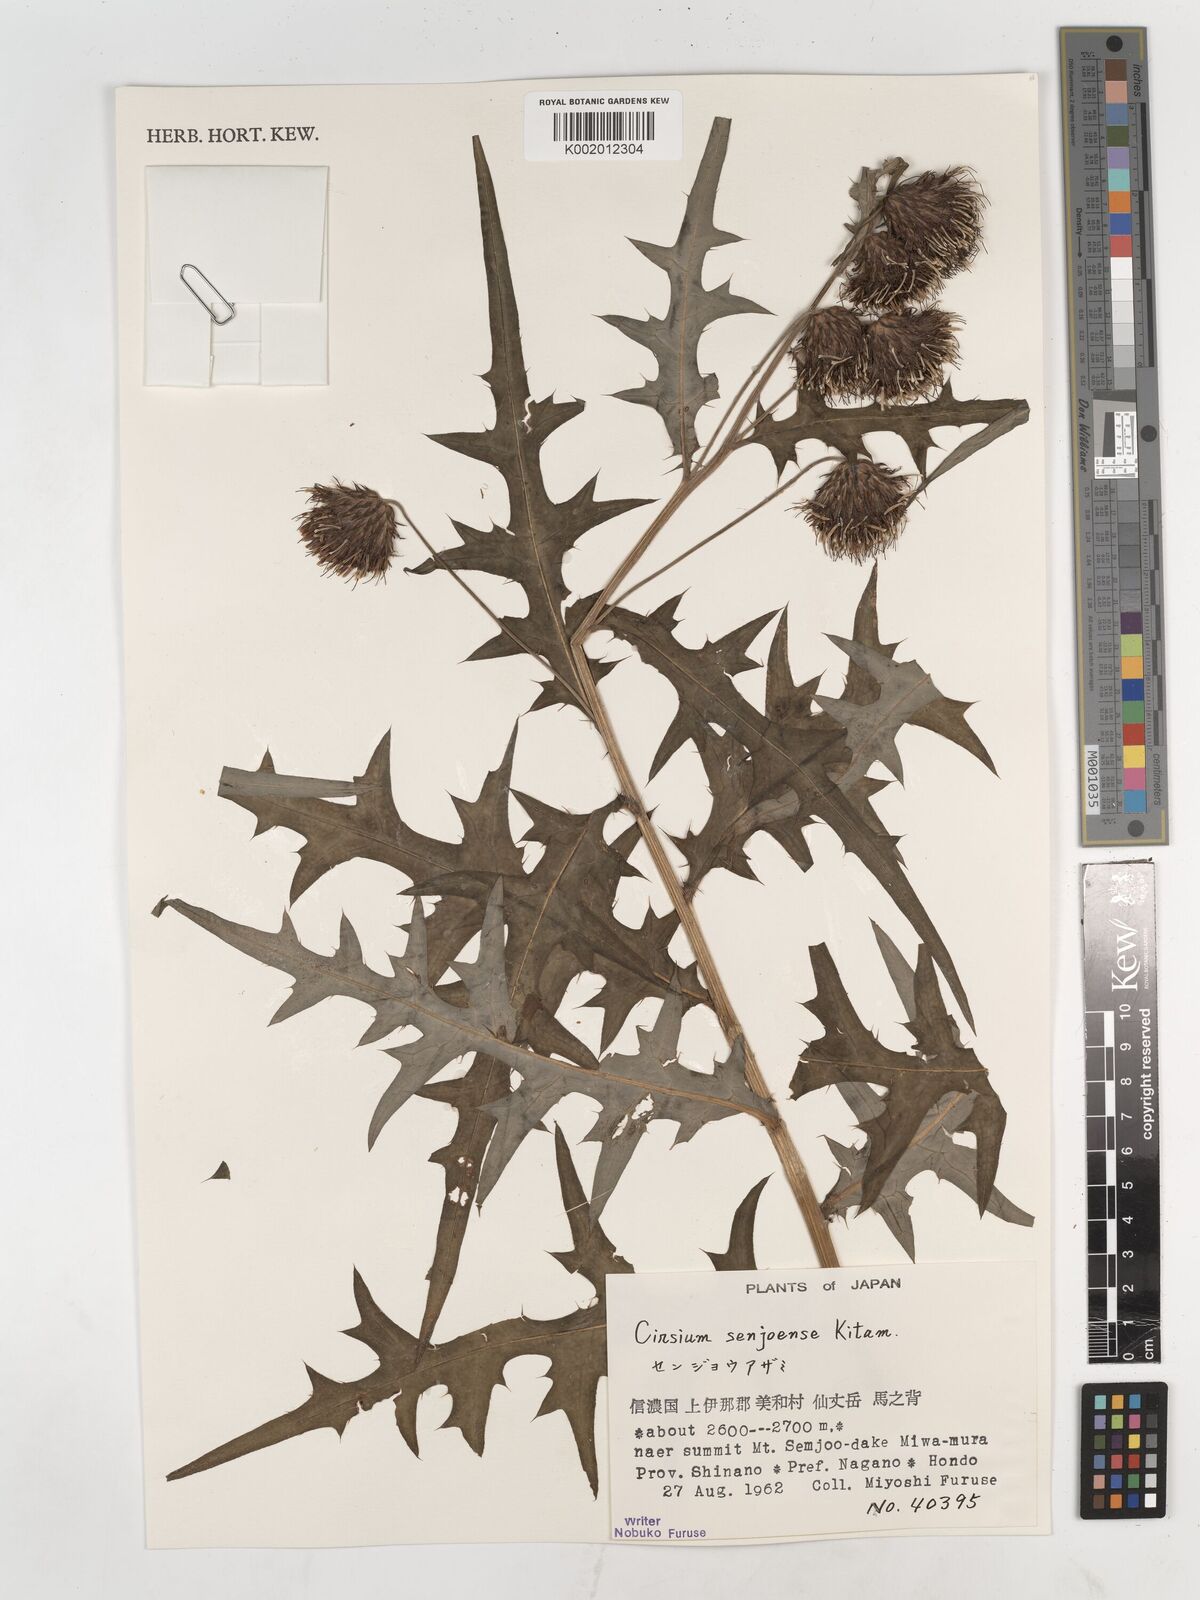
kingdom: Plantae
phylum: Tracheophyta
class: Magnoliopsida
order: Asterales
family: Asteraceae
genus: Cirsium
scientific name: Cirsium senjoense
